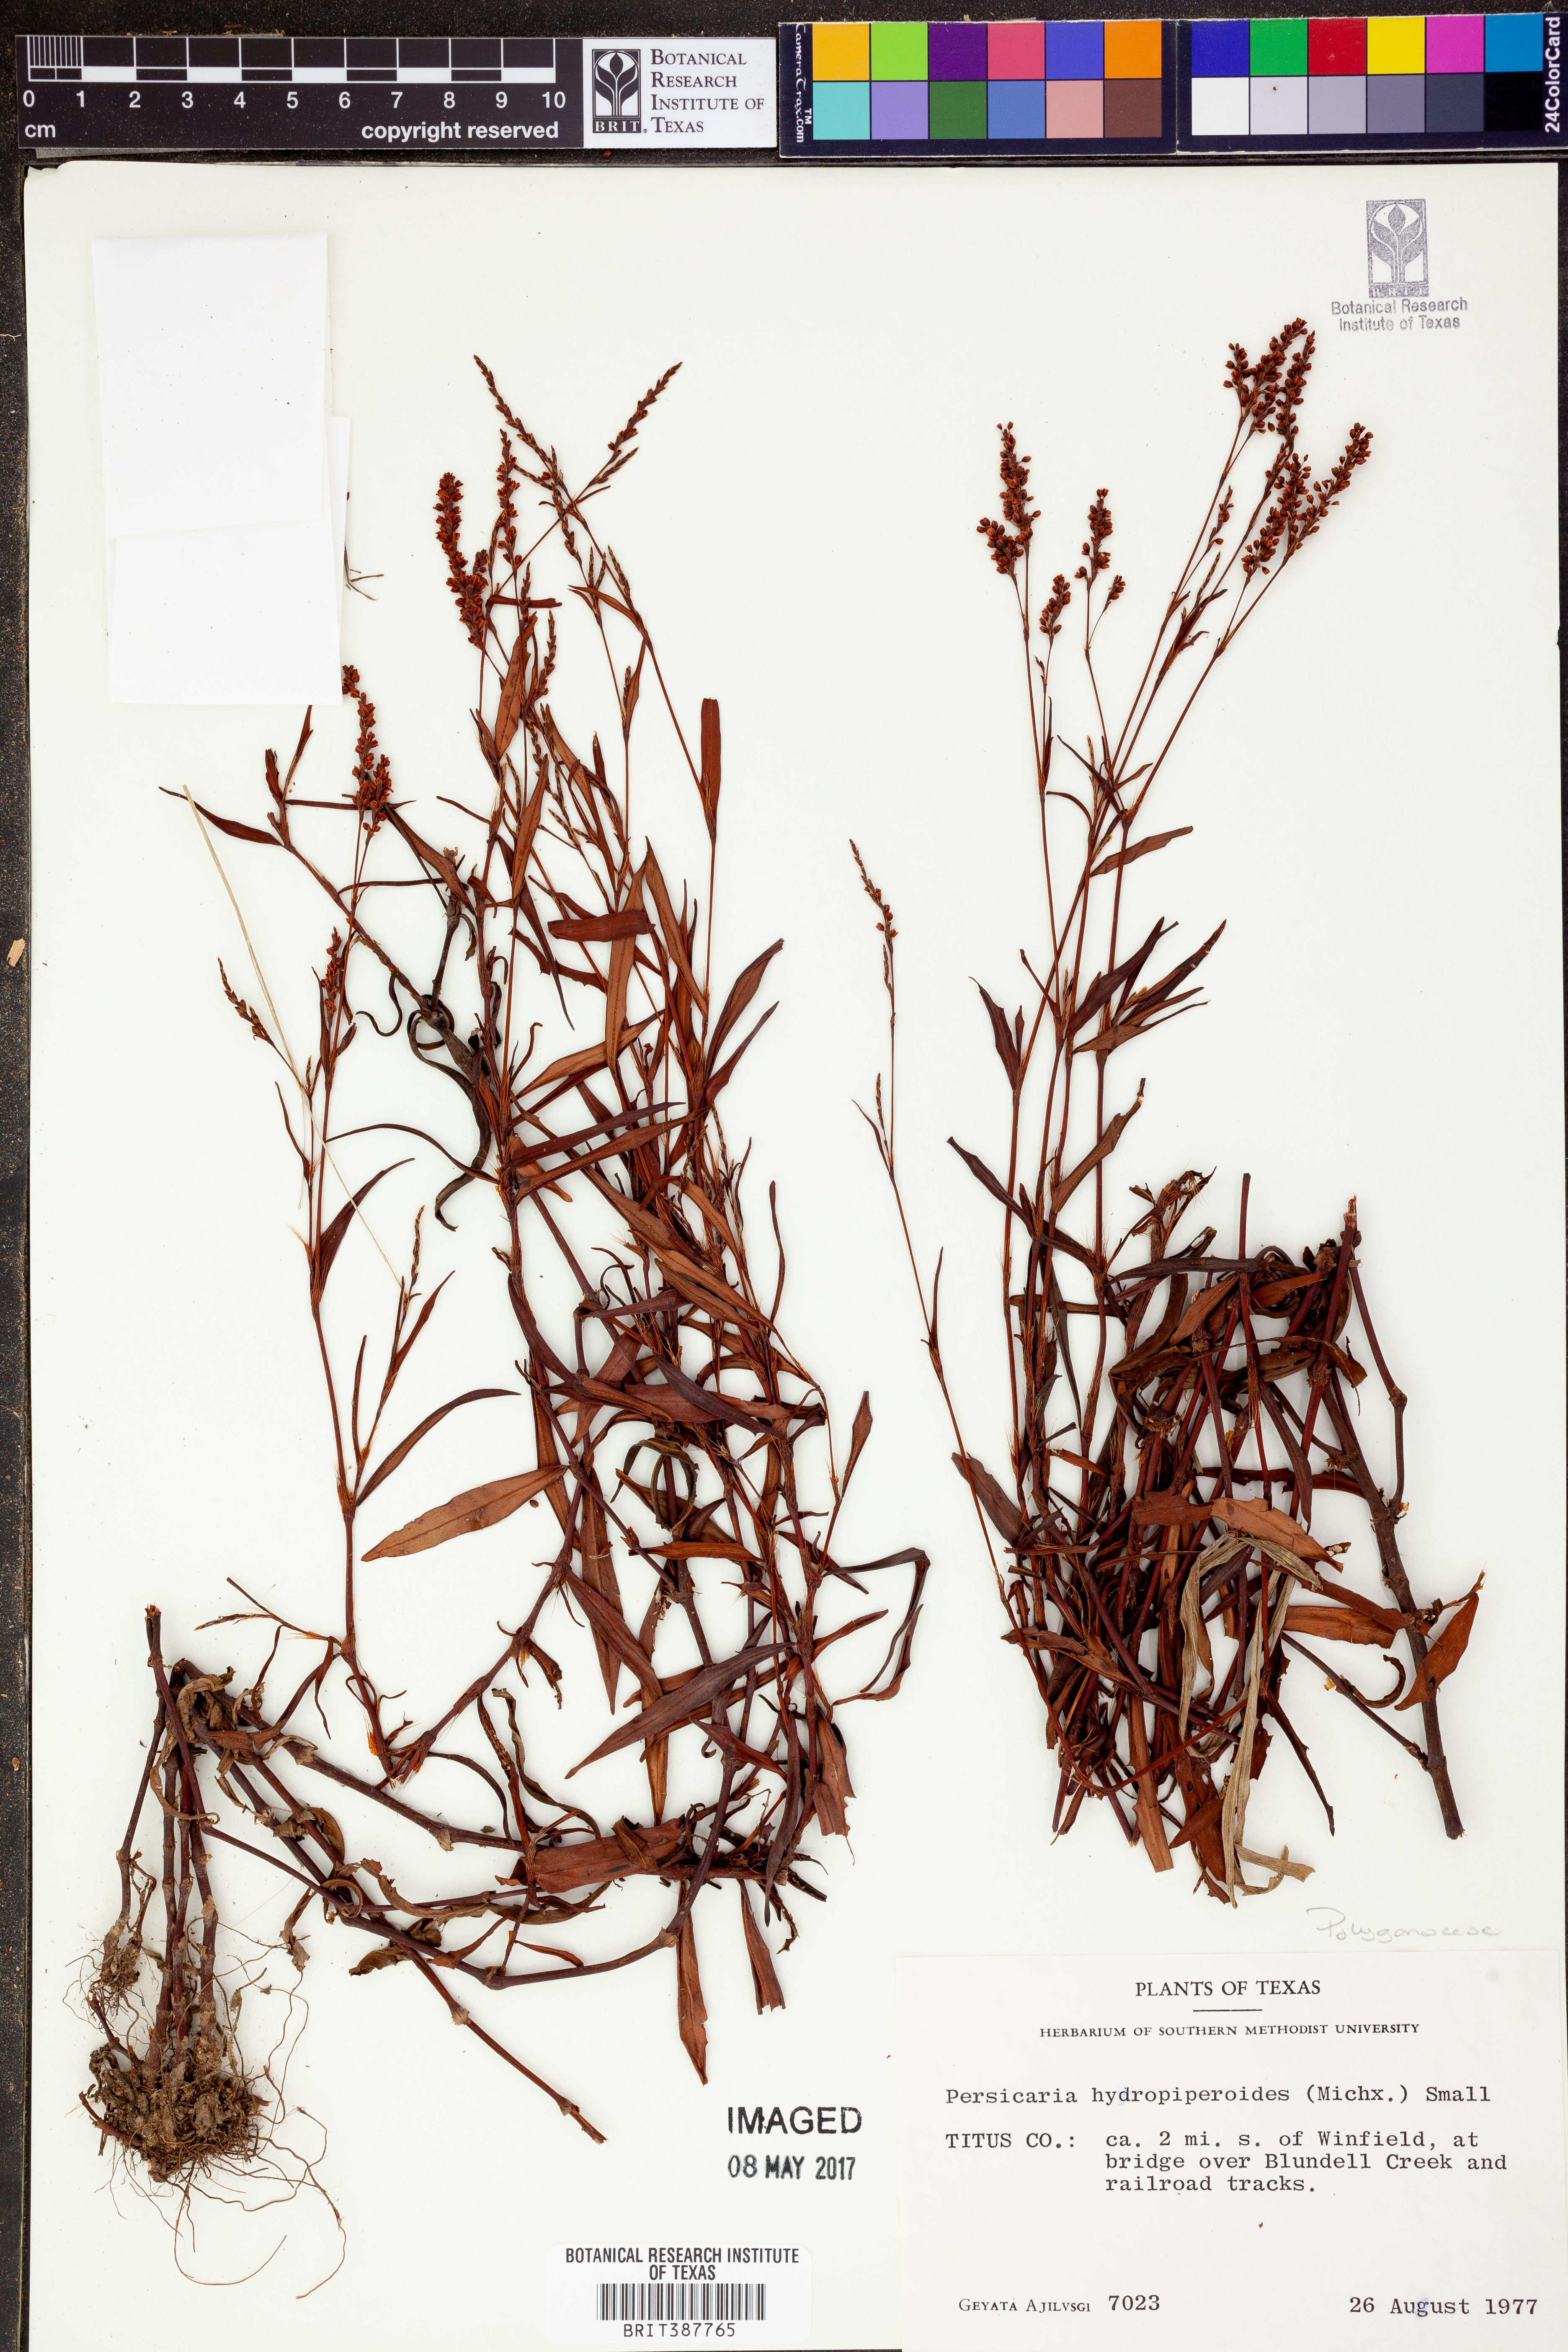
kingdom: Plantae
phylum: Tracheophyta
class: Magnoliopsida
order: Caryophyllales
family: Polygonaceae
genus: Persicaria
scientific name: Persicaria hydropiperoides
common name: Swamp smartweed
